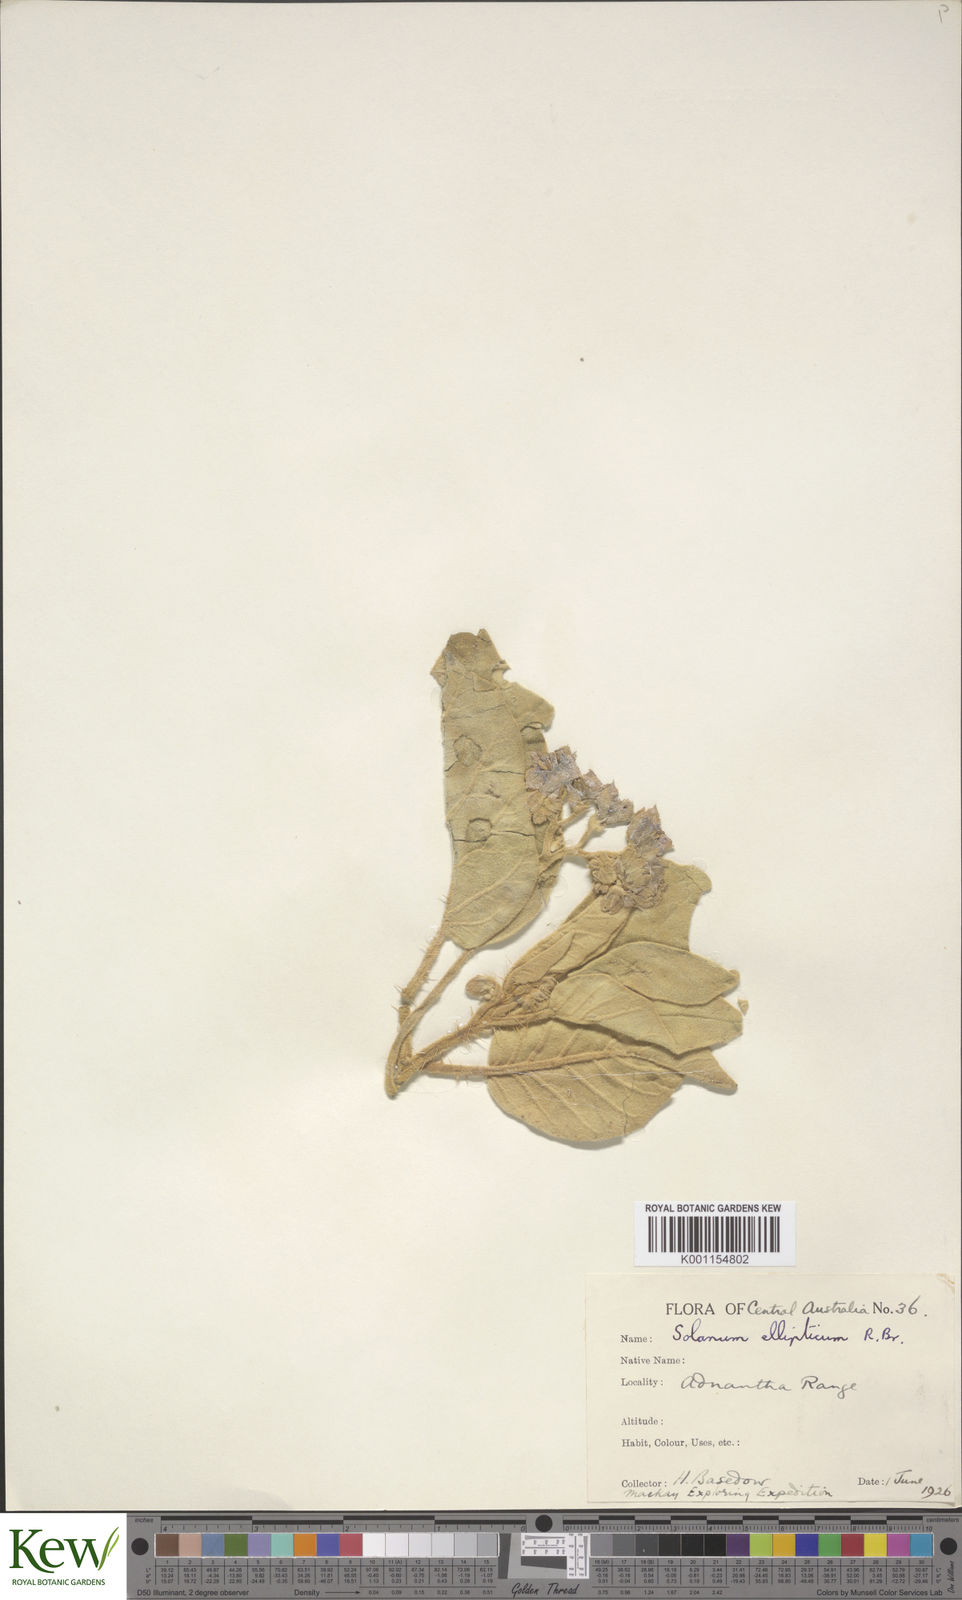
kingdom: Plantae
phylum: Tracheophyta
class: Magnoliopsida
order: Solanales
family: Solanaceae
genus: Solanum
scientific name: Solanum quadriloculatum
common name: Wild tomato
